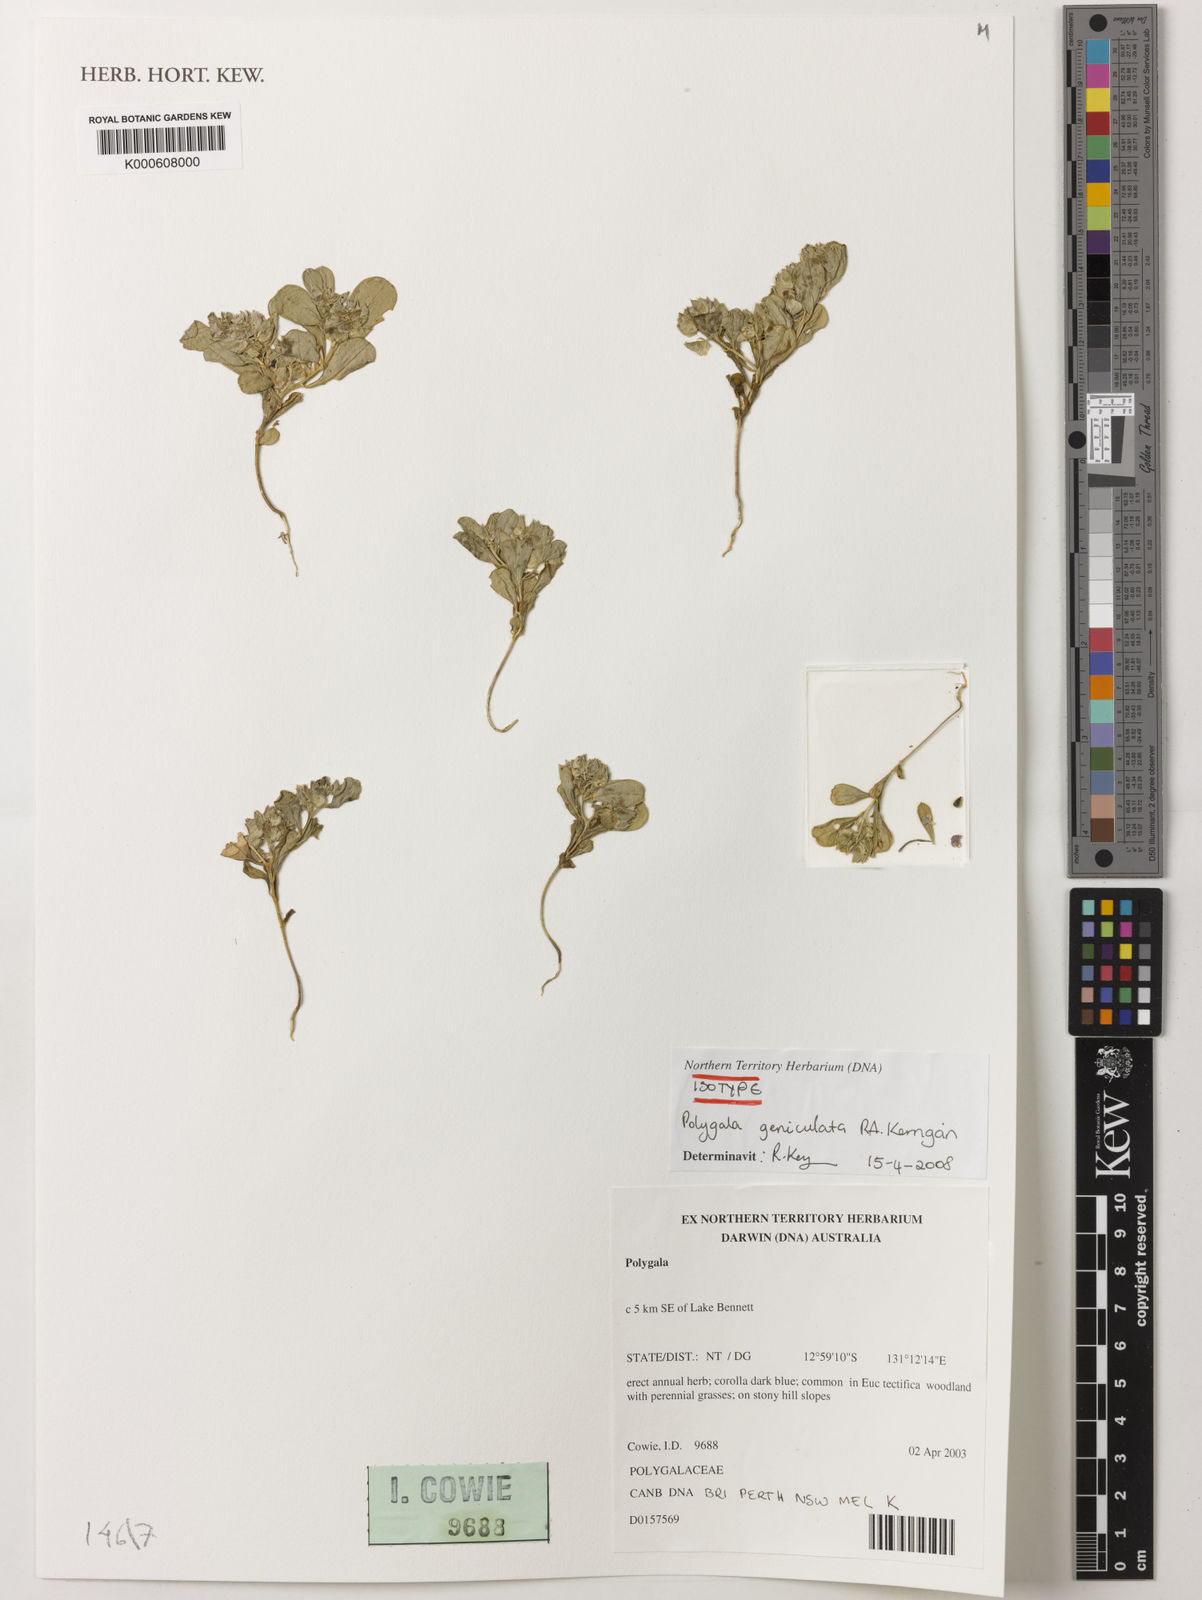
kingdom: Plantae
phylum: Tracheophyta
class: Magnoliopsida
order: Fabales
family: Polygalaceae
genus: Polygala
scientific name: Polygala geniculata
